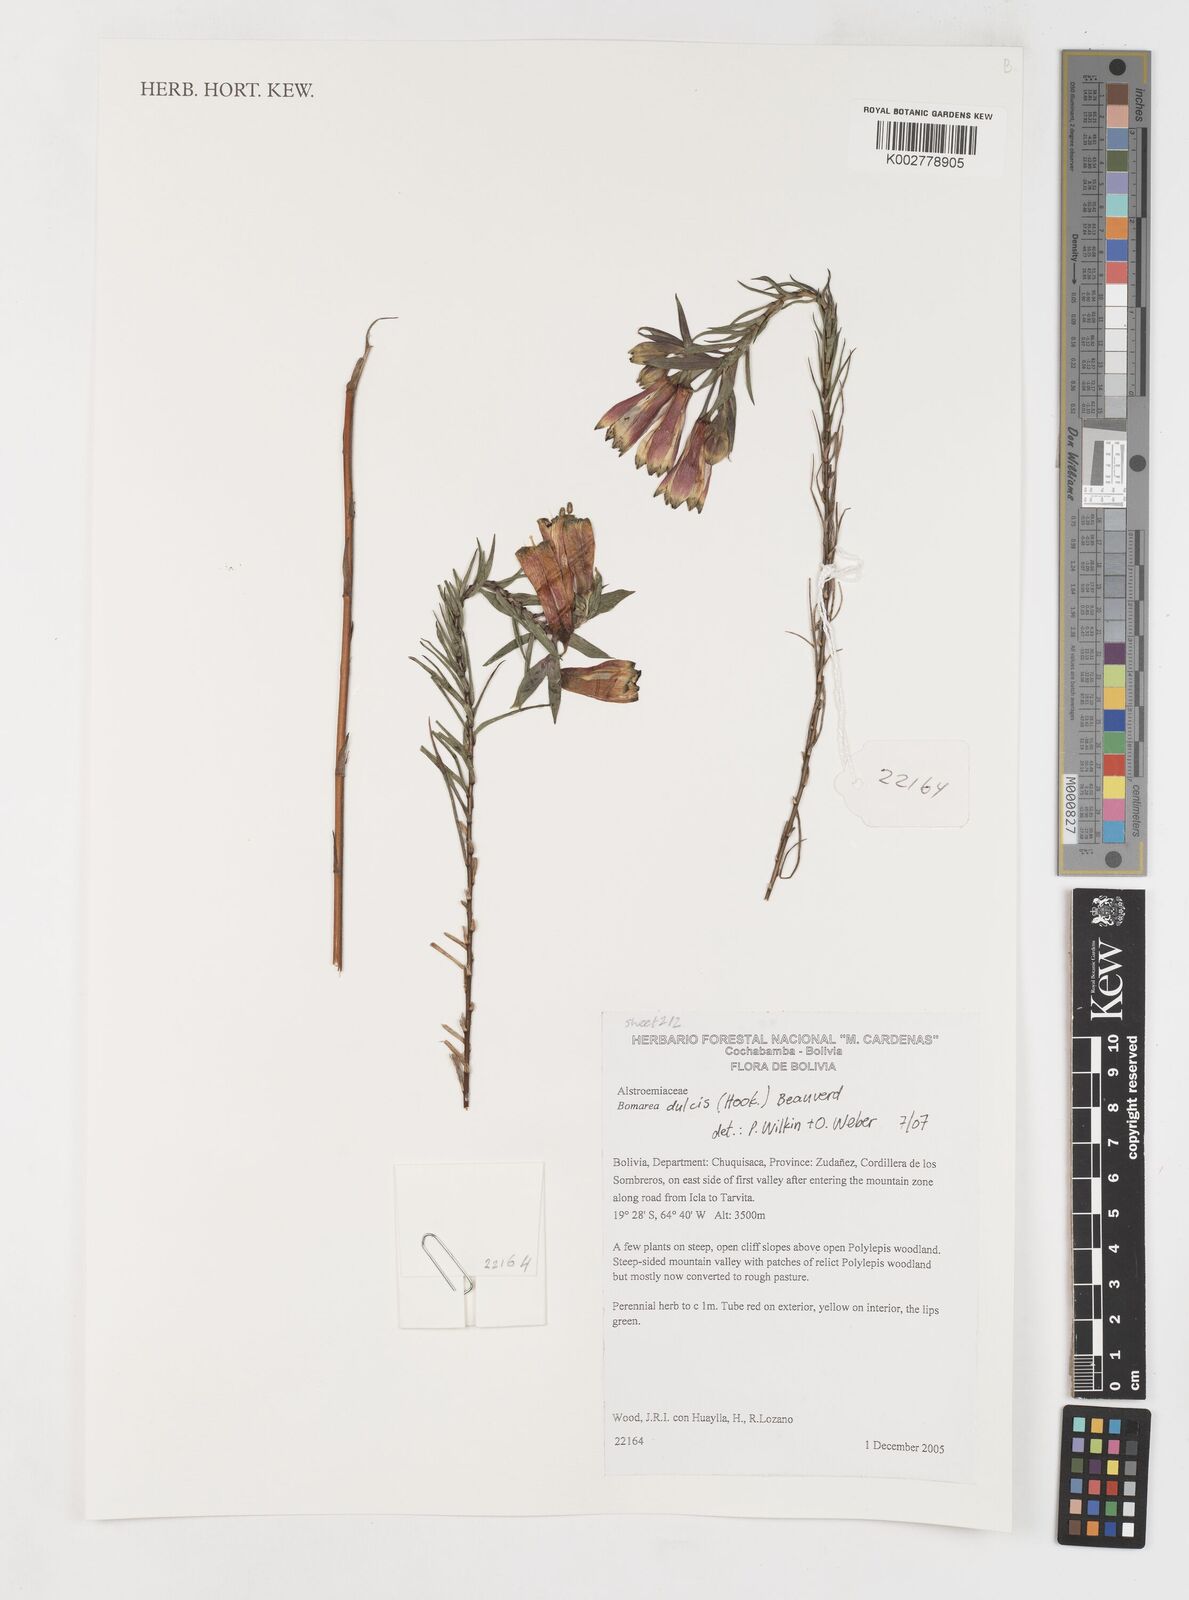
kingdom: Plantae
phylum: Tracheophyta
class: Liliopsida
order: Liliales
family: Alstroemeriaceae
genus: Bomarea
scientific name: Bomarea dulcis
